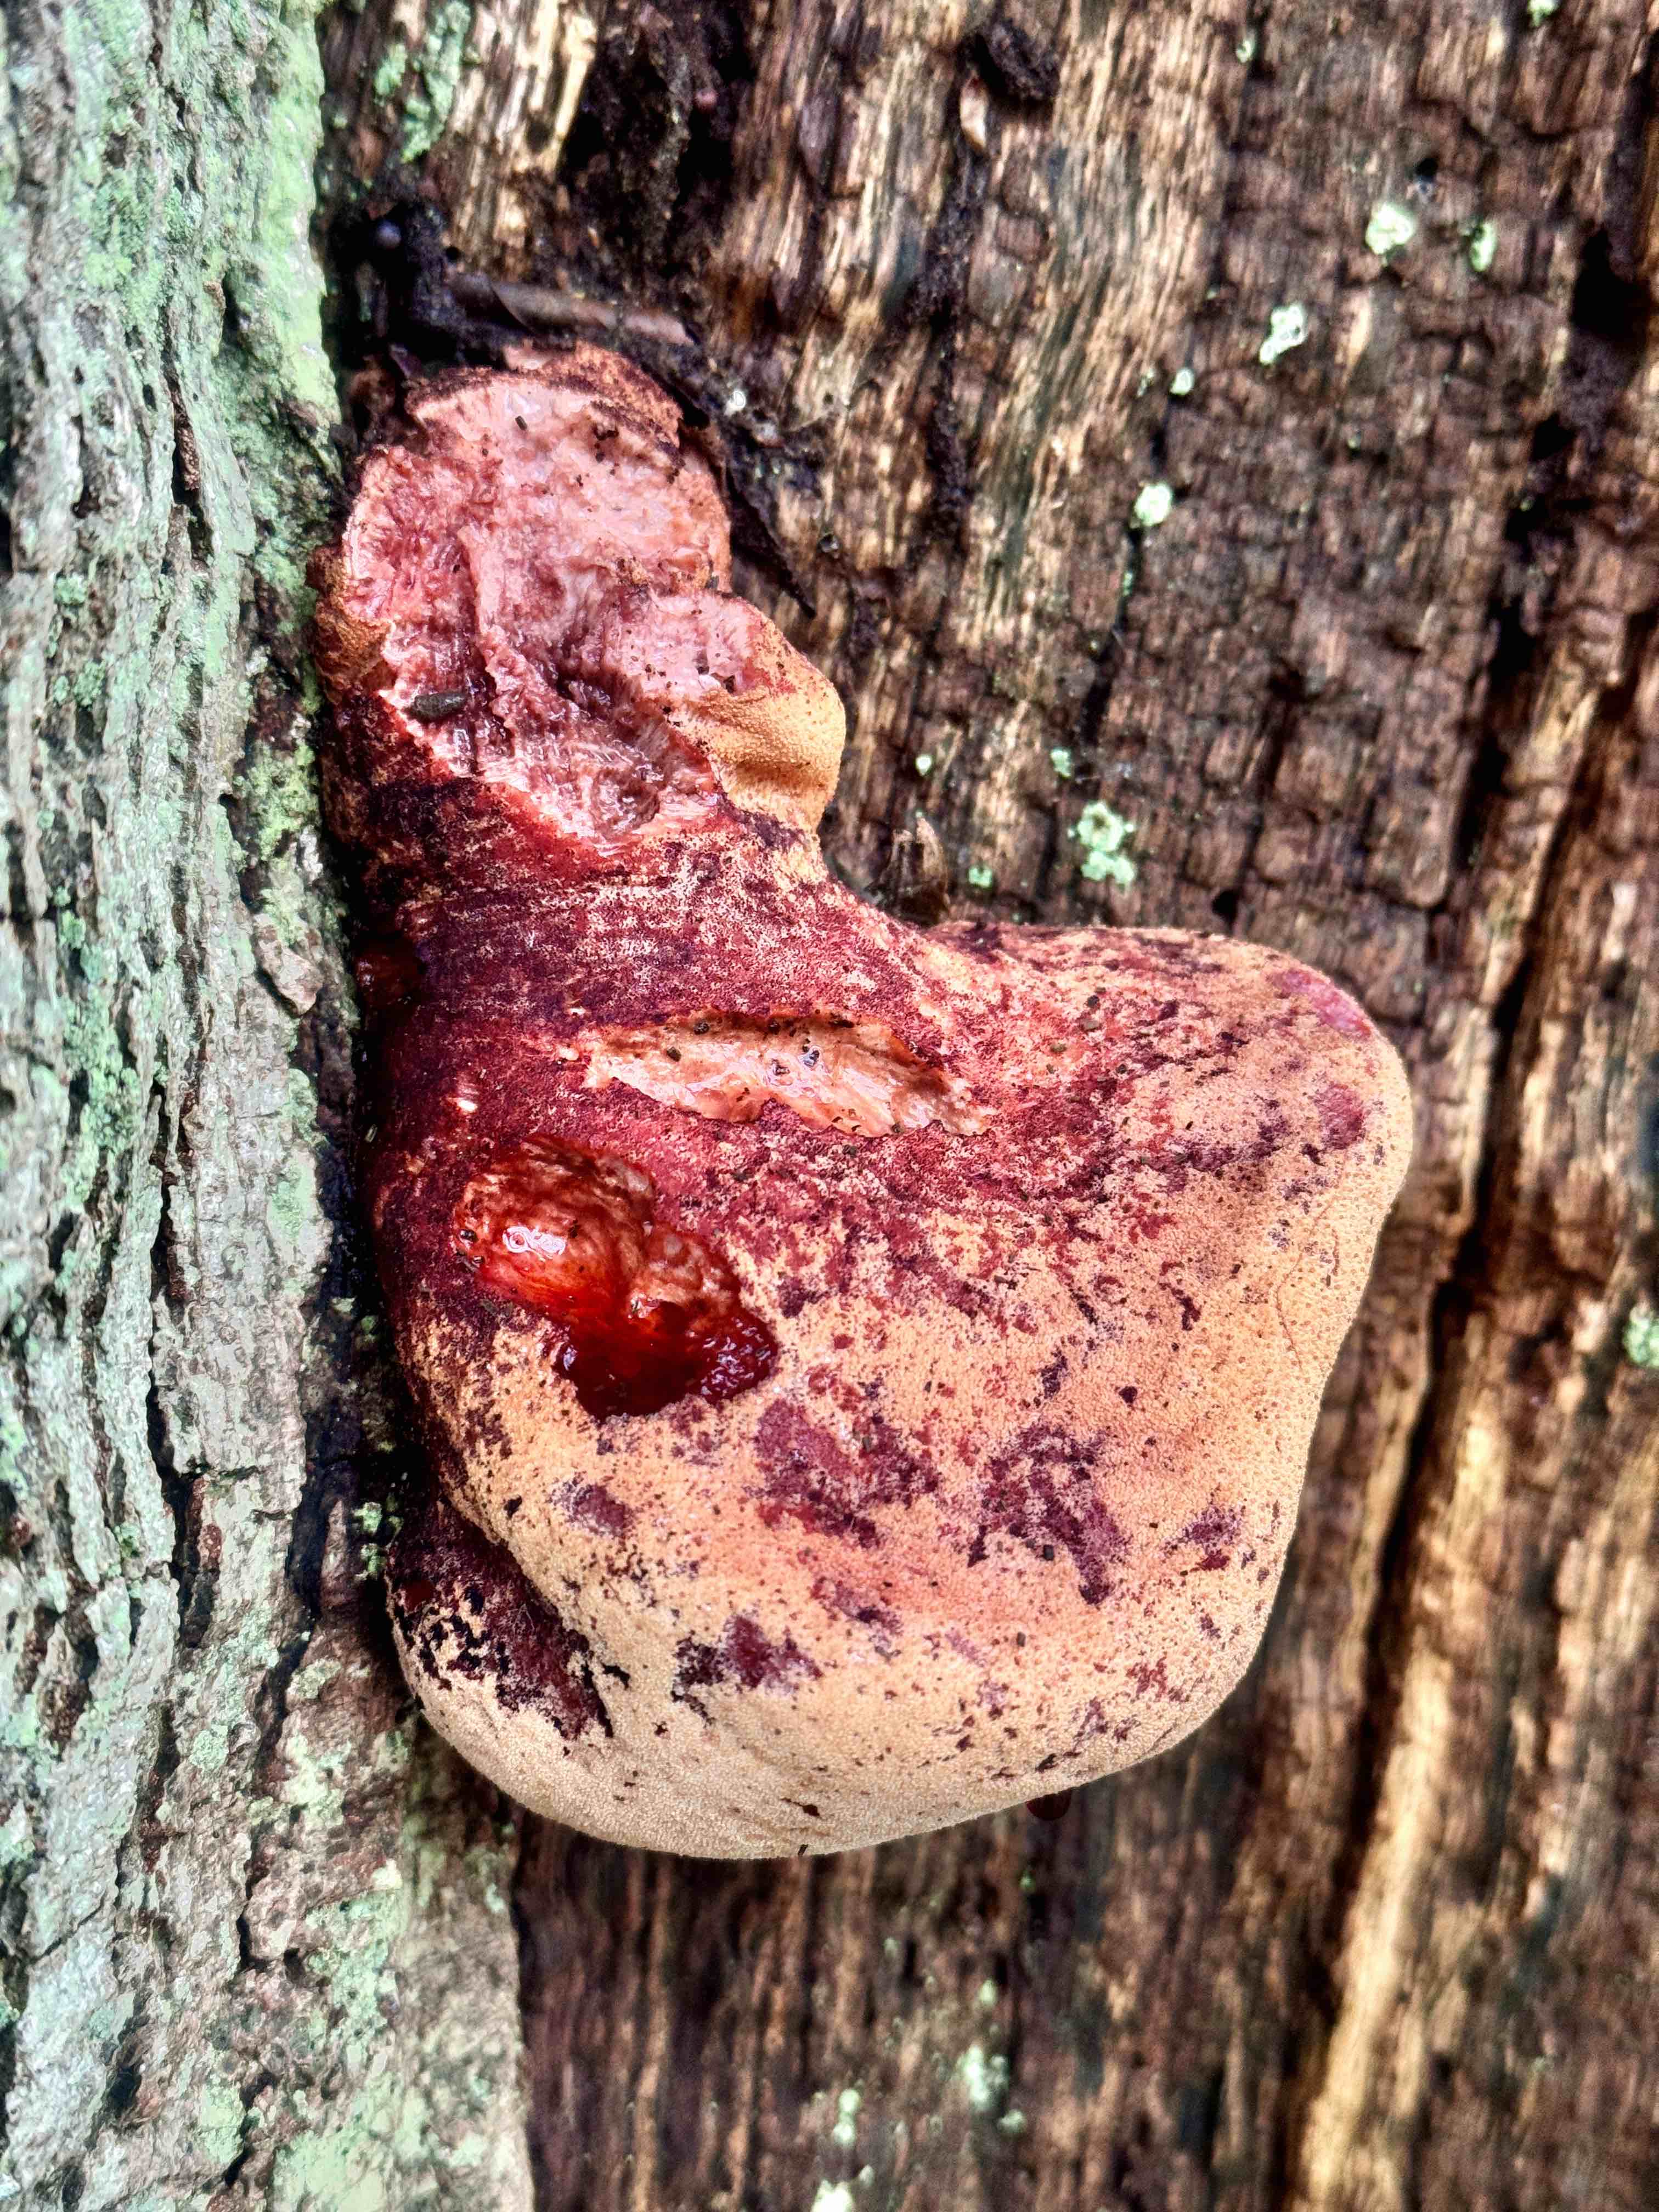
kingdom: Fungi
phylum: Basidiomycota
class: Agaricomycetes
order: Agaricales
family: Fistulinaceae
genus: Fistulina
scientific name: Fistulina hepatica
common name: oksetunge
